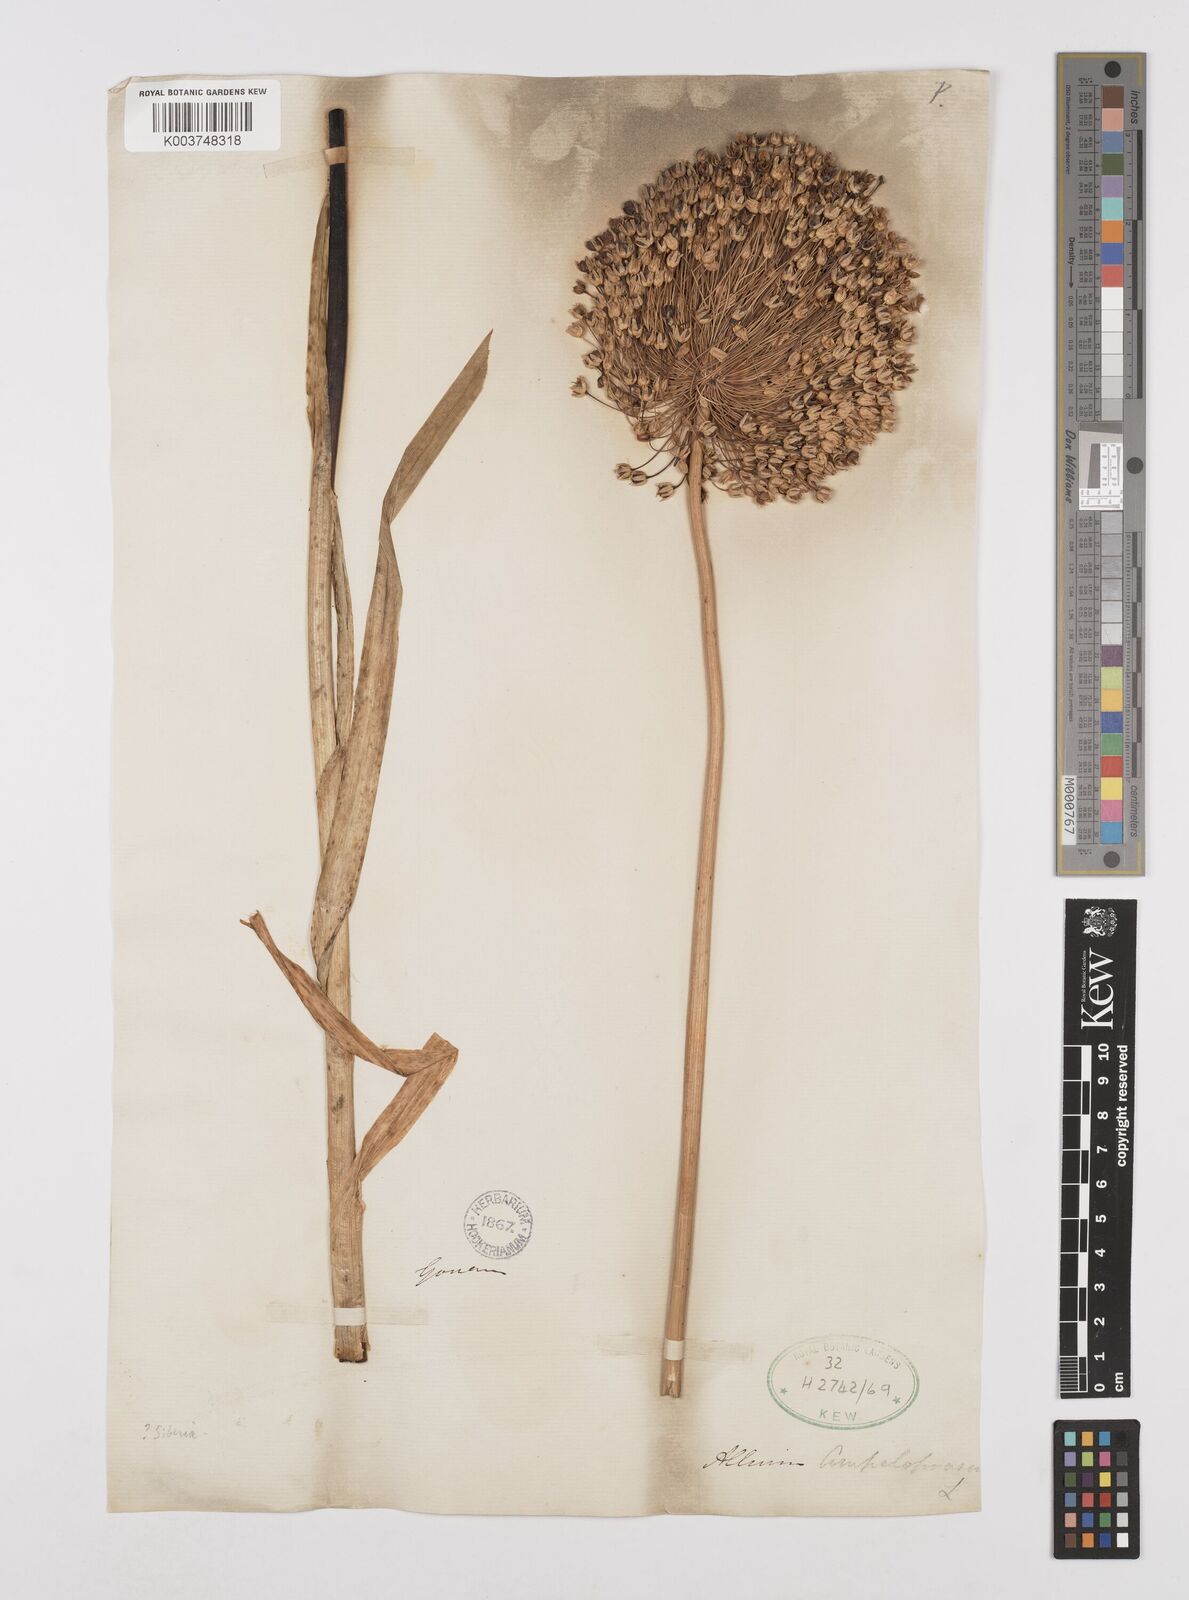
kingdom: Plantae
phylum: Tracheophyta
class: Liliopsida
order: Asparagales
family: Amaryllidaceae
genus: Allium
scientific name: Allium ampeloprasum
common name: Wild leek
